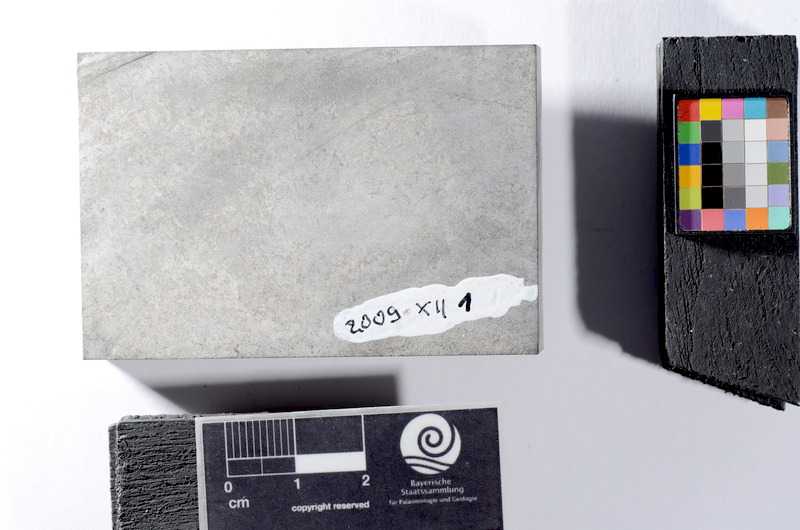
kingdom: Animalia
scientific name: Animalia
